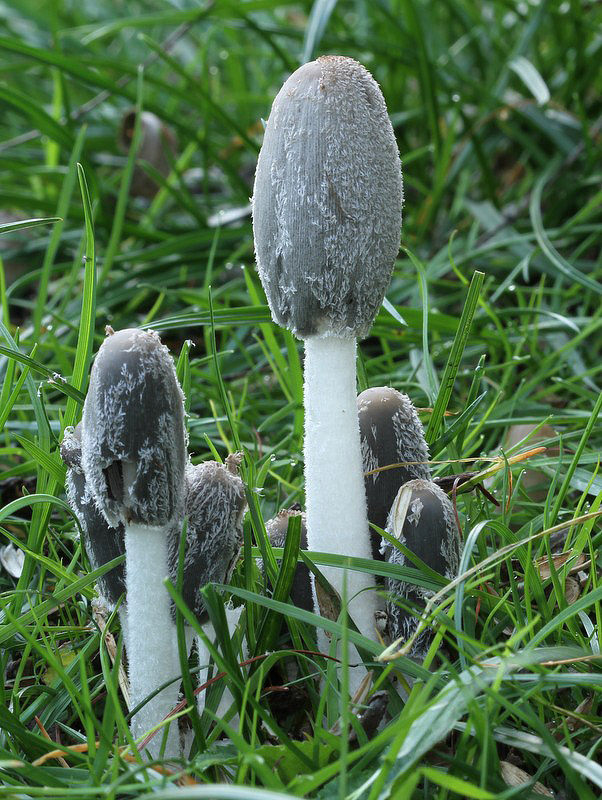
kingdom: Fungi
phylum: Basidiomycota
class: Agaricomycetes
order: Agaricales
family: Psathyrellaceae
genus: Coprinopsis
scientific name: Coprinopsis lagopus
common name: dunstokket blækhat
